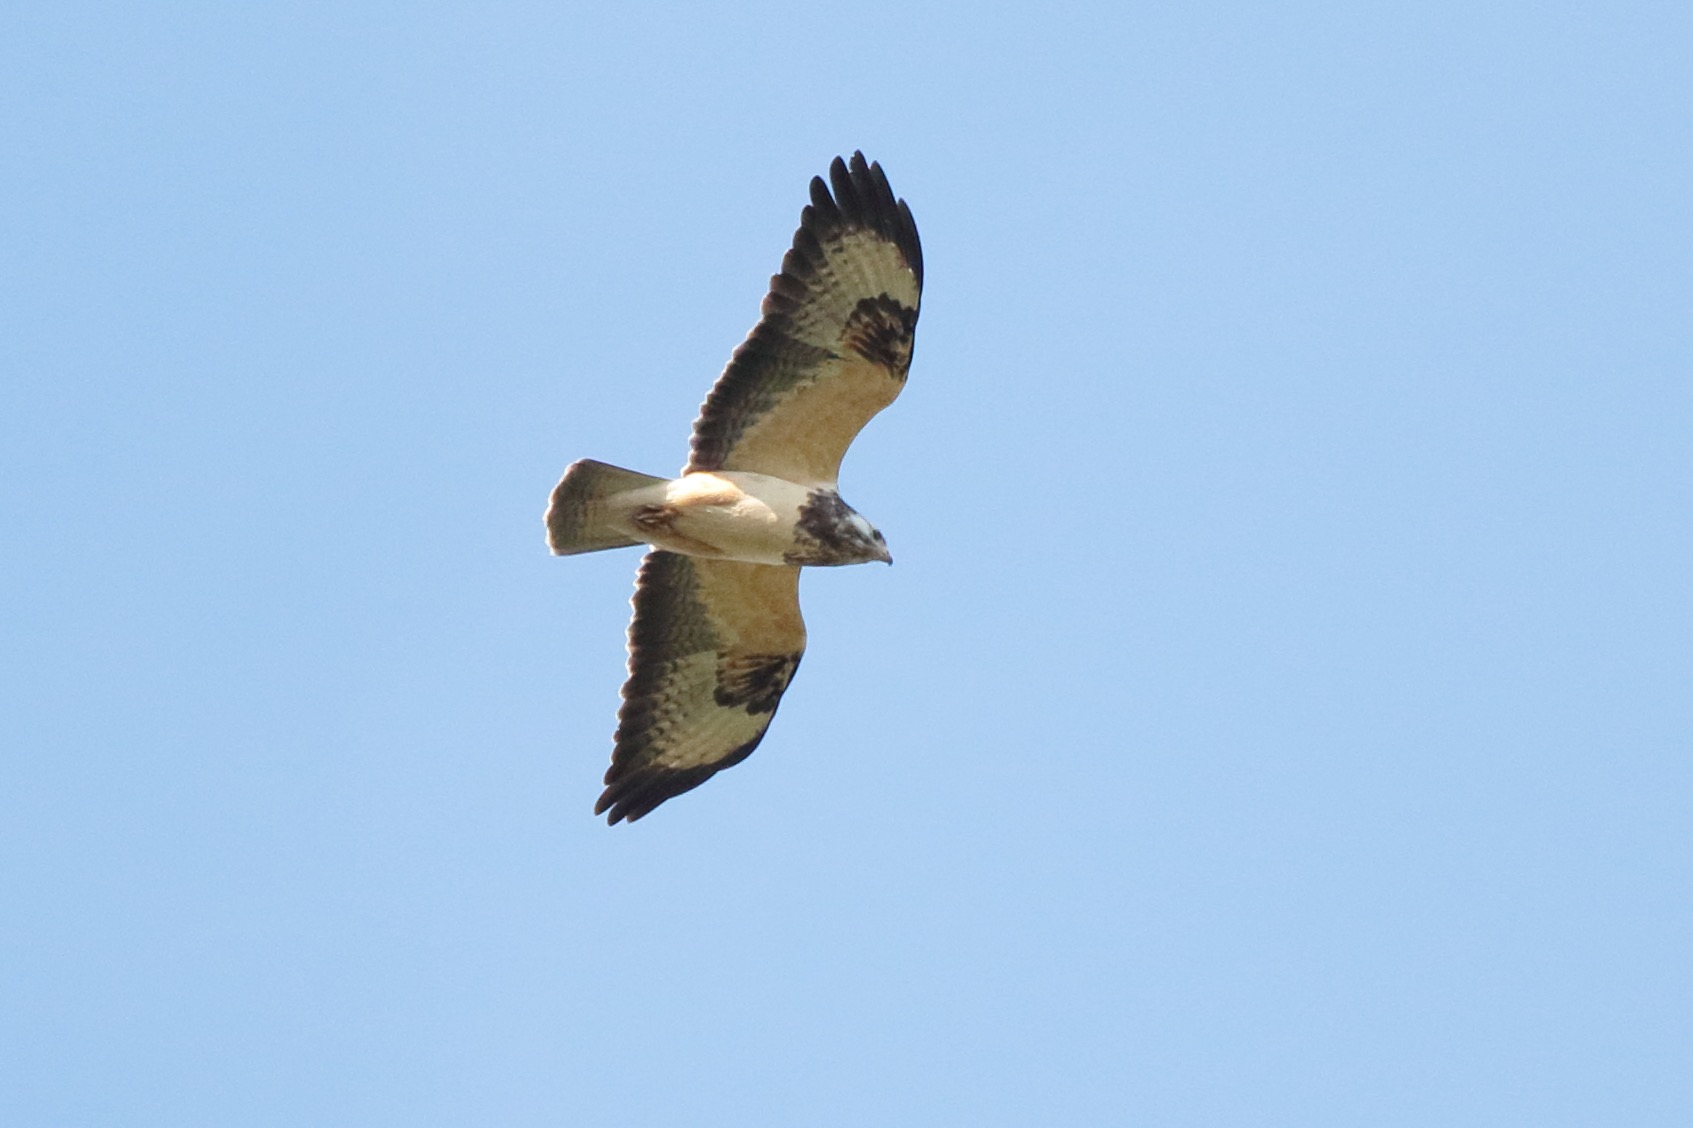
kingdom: Animalia
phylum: Chordata
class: Aves
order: Accipitriformes
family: Accipitridae
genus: Buteo
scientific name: Buteo buteo
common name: Musvåge
